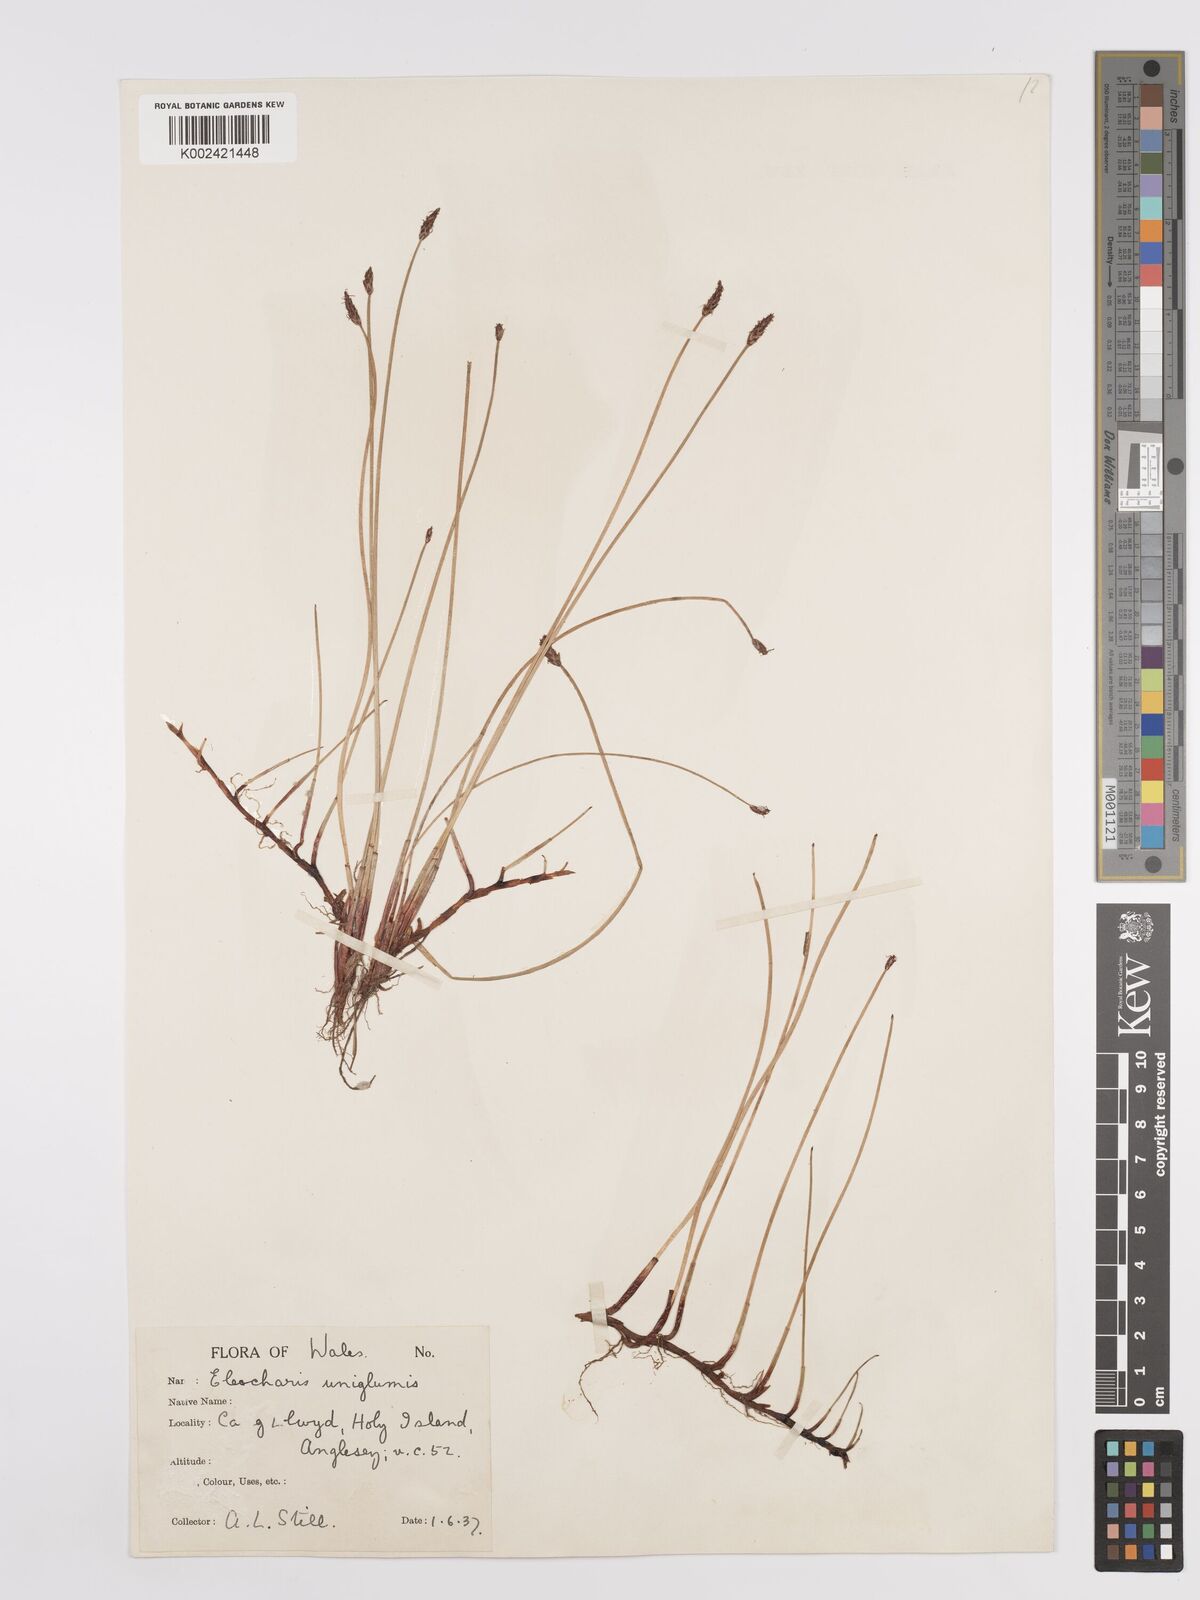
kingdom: Plantae
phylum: Tracheophyta
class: Liliopsida
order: Poales
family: Cyperaceae
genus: Eleocharis
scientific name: Eleocharis uniglumis
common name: Slender spike-rush
